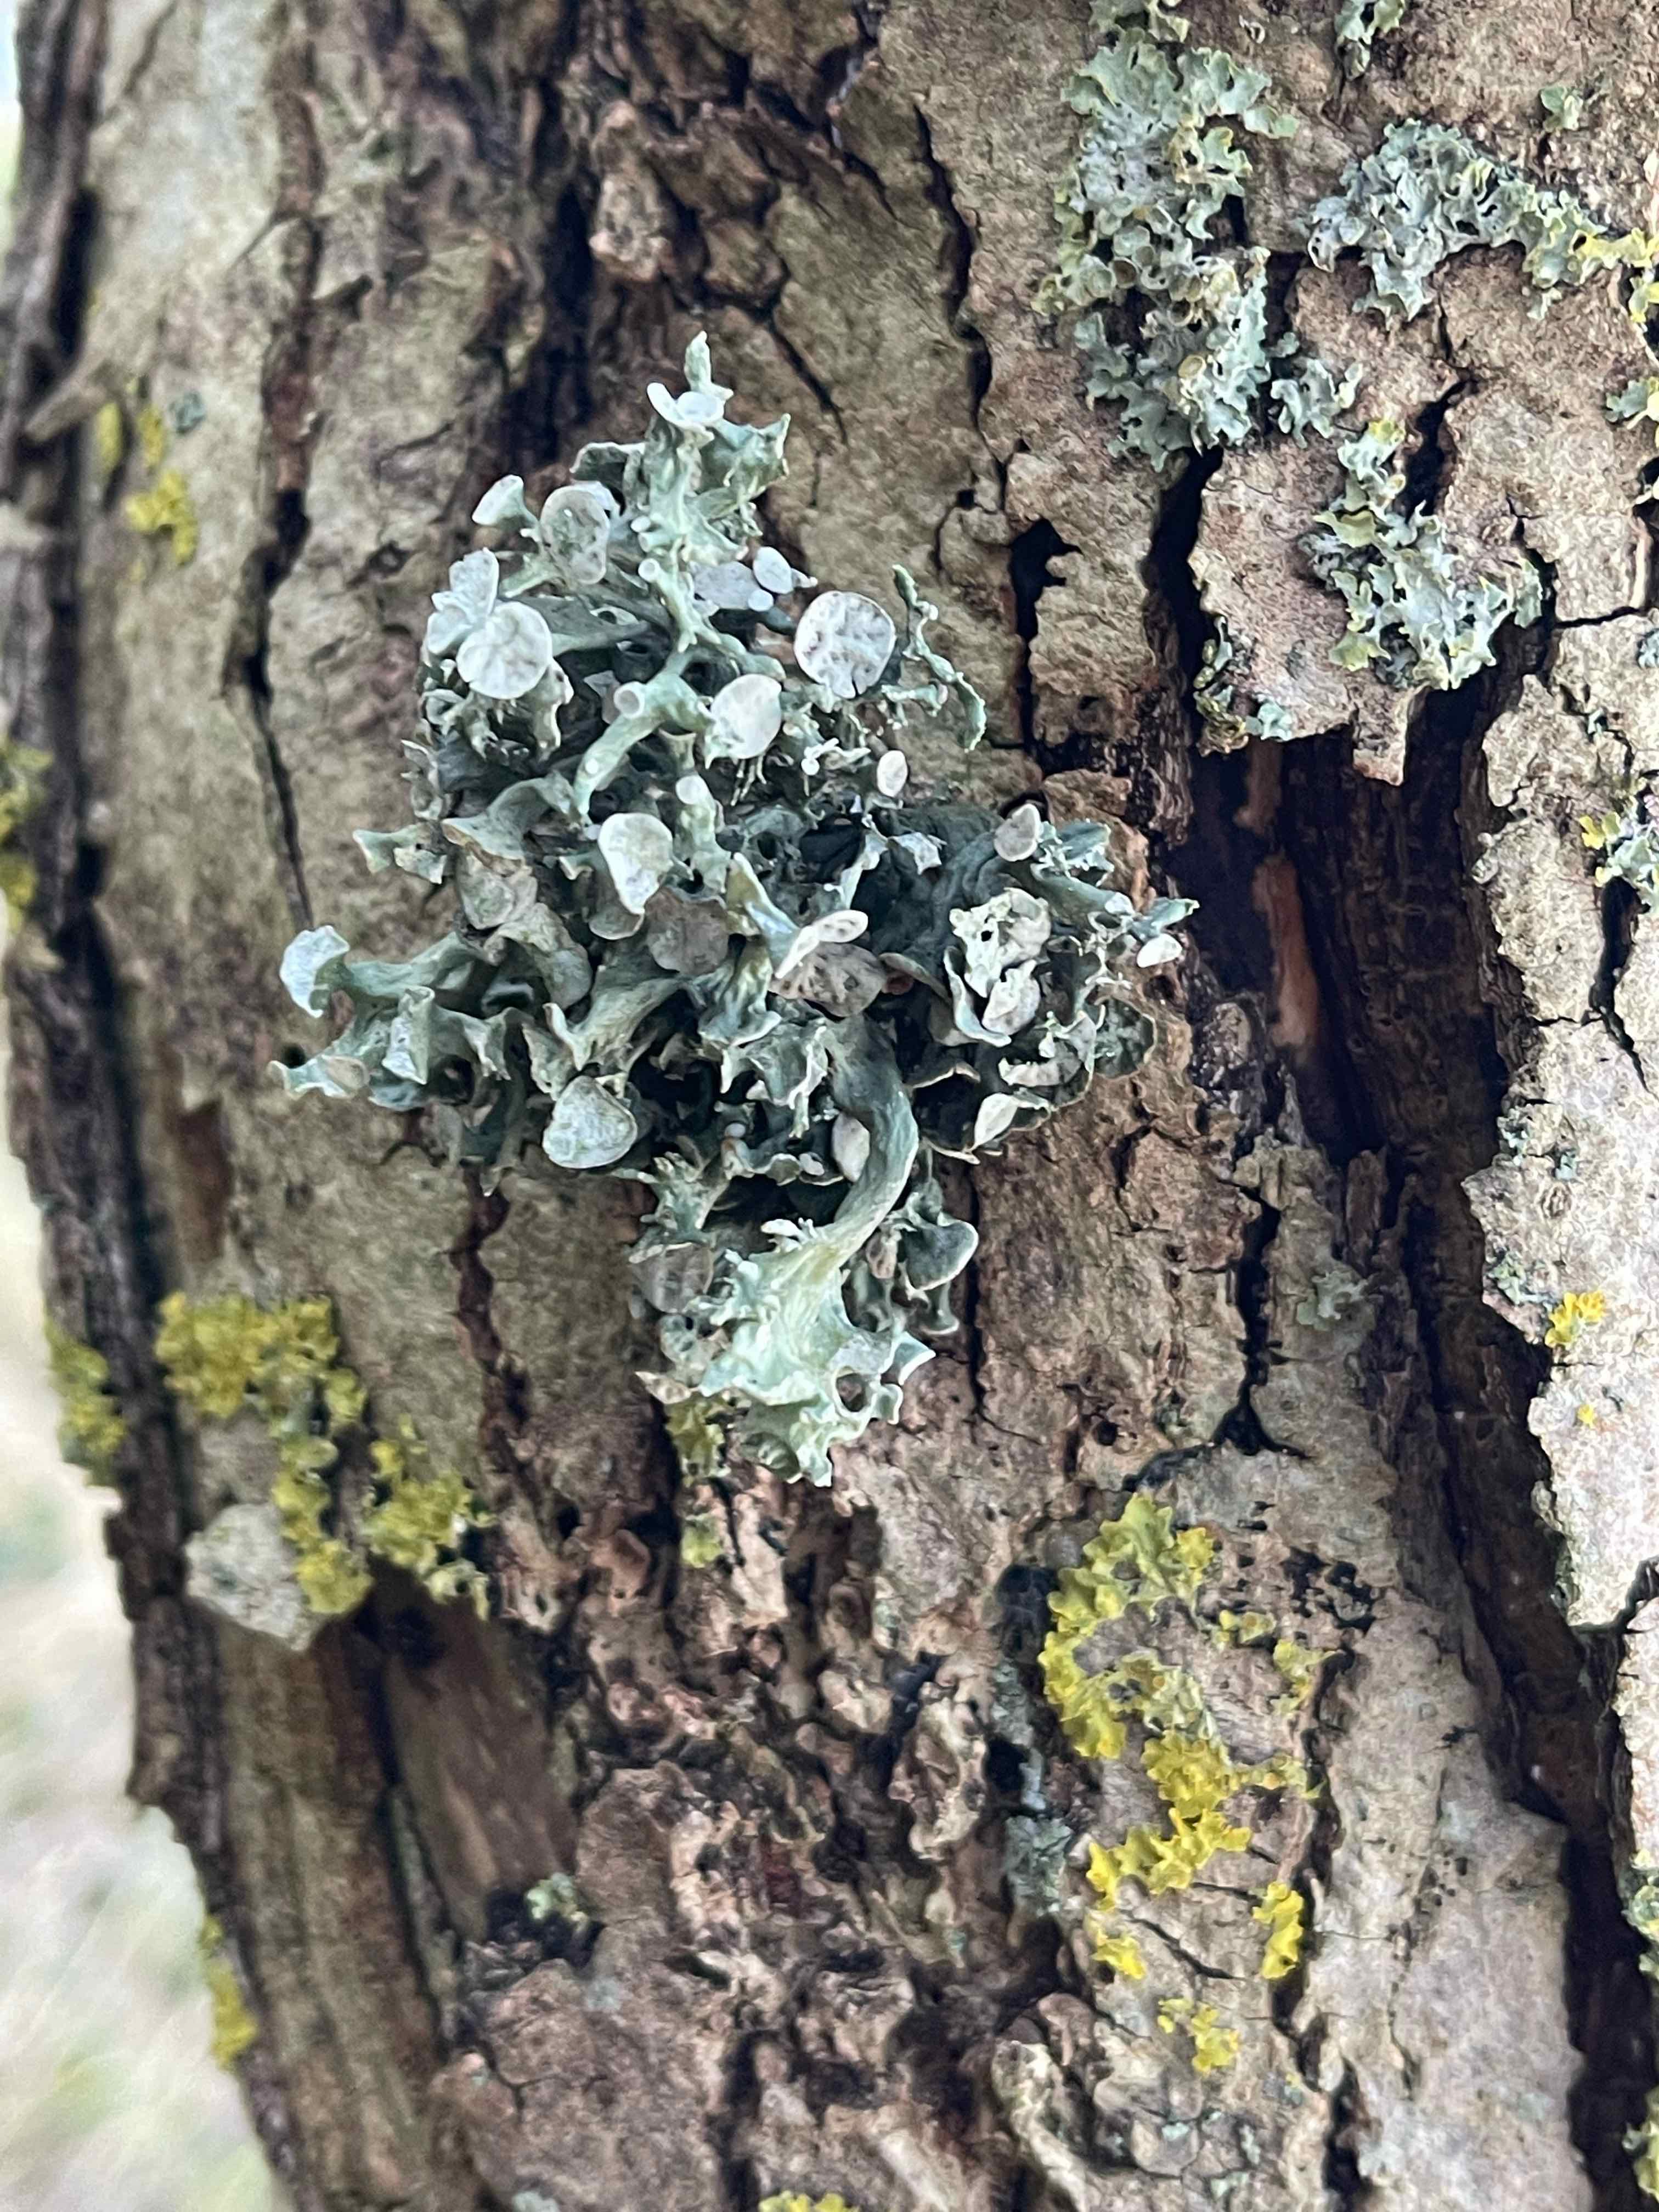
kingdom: Fungi
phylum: Ascomycota
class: Lecanoromycetes
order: Lecanorales
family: Ramalinaceae
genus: Ramalina
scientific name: Ramalina fastigiata
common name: tue-grenlav
